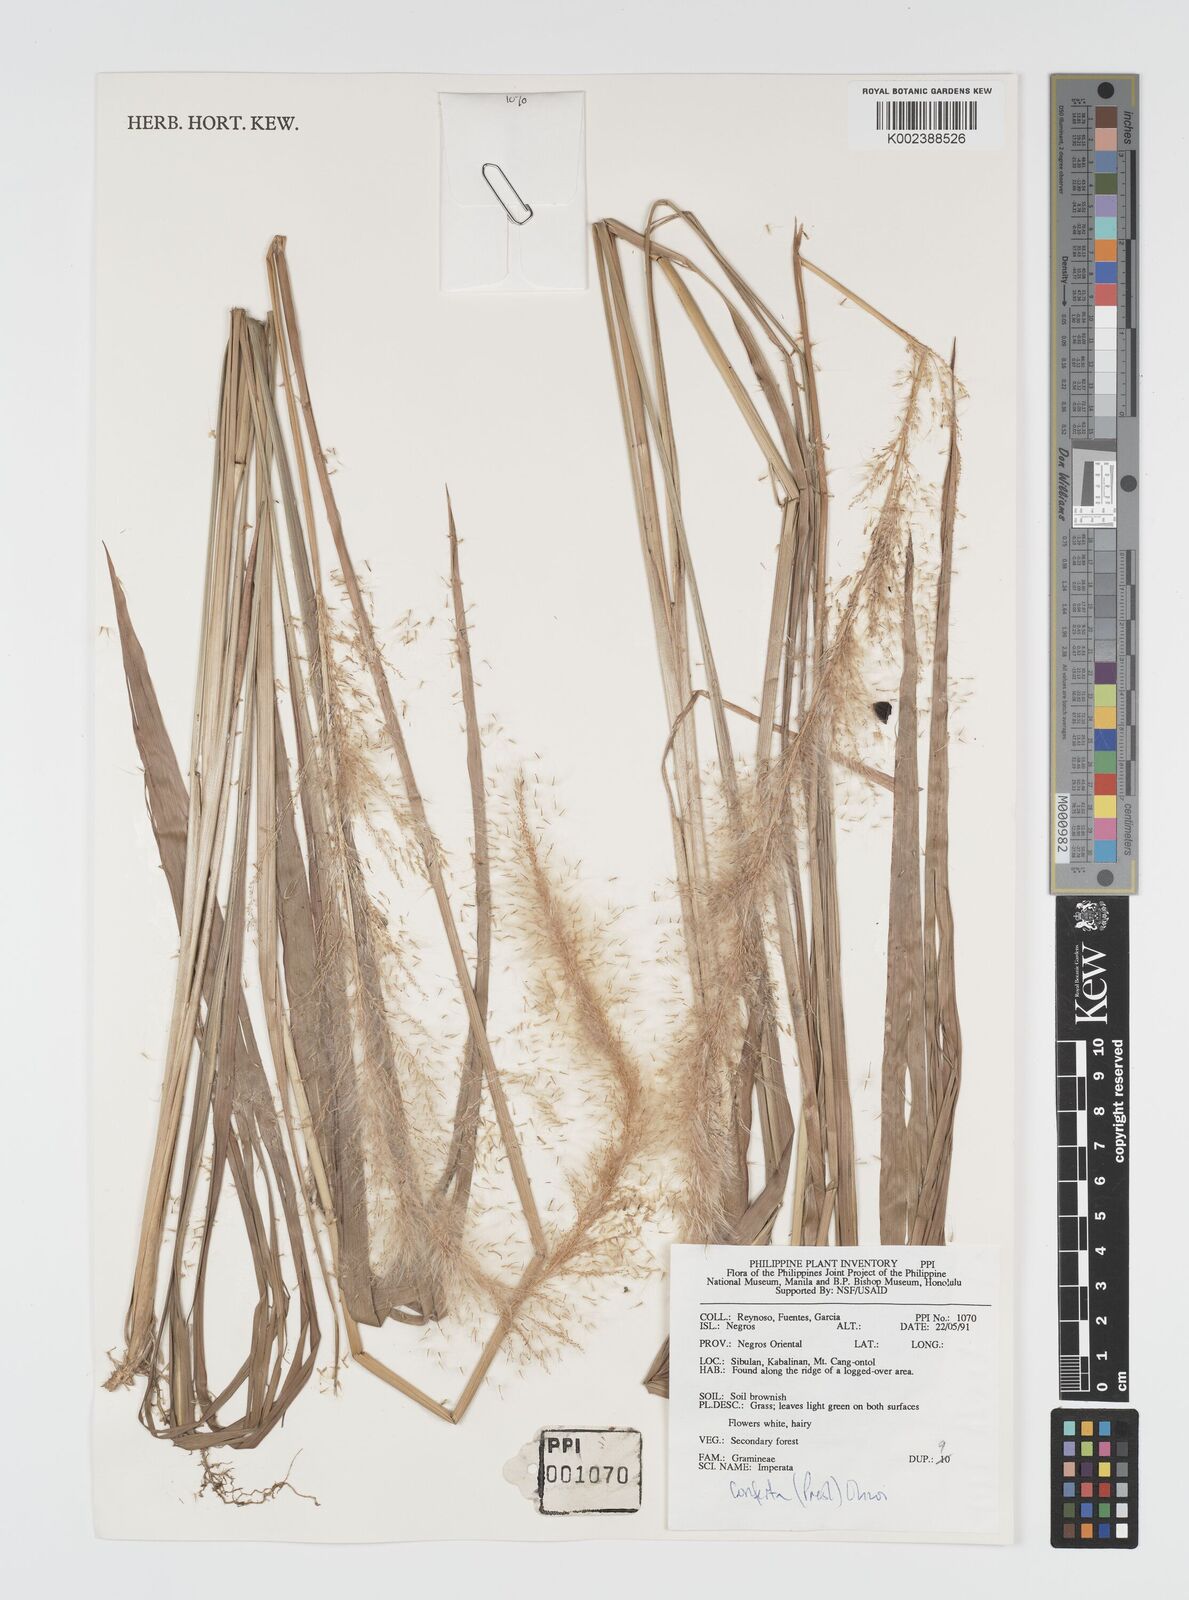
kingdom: Plantae
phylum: Tracheophyta
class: Liliopsida
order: Poales
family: Poaceae
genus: Imperata
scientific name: Imperata conferta
